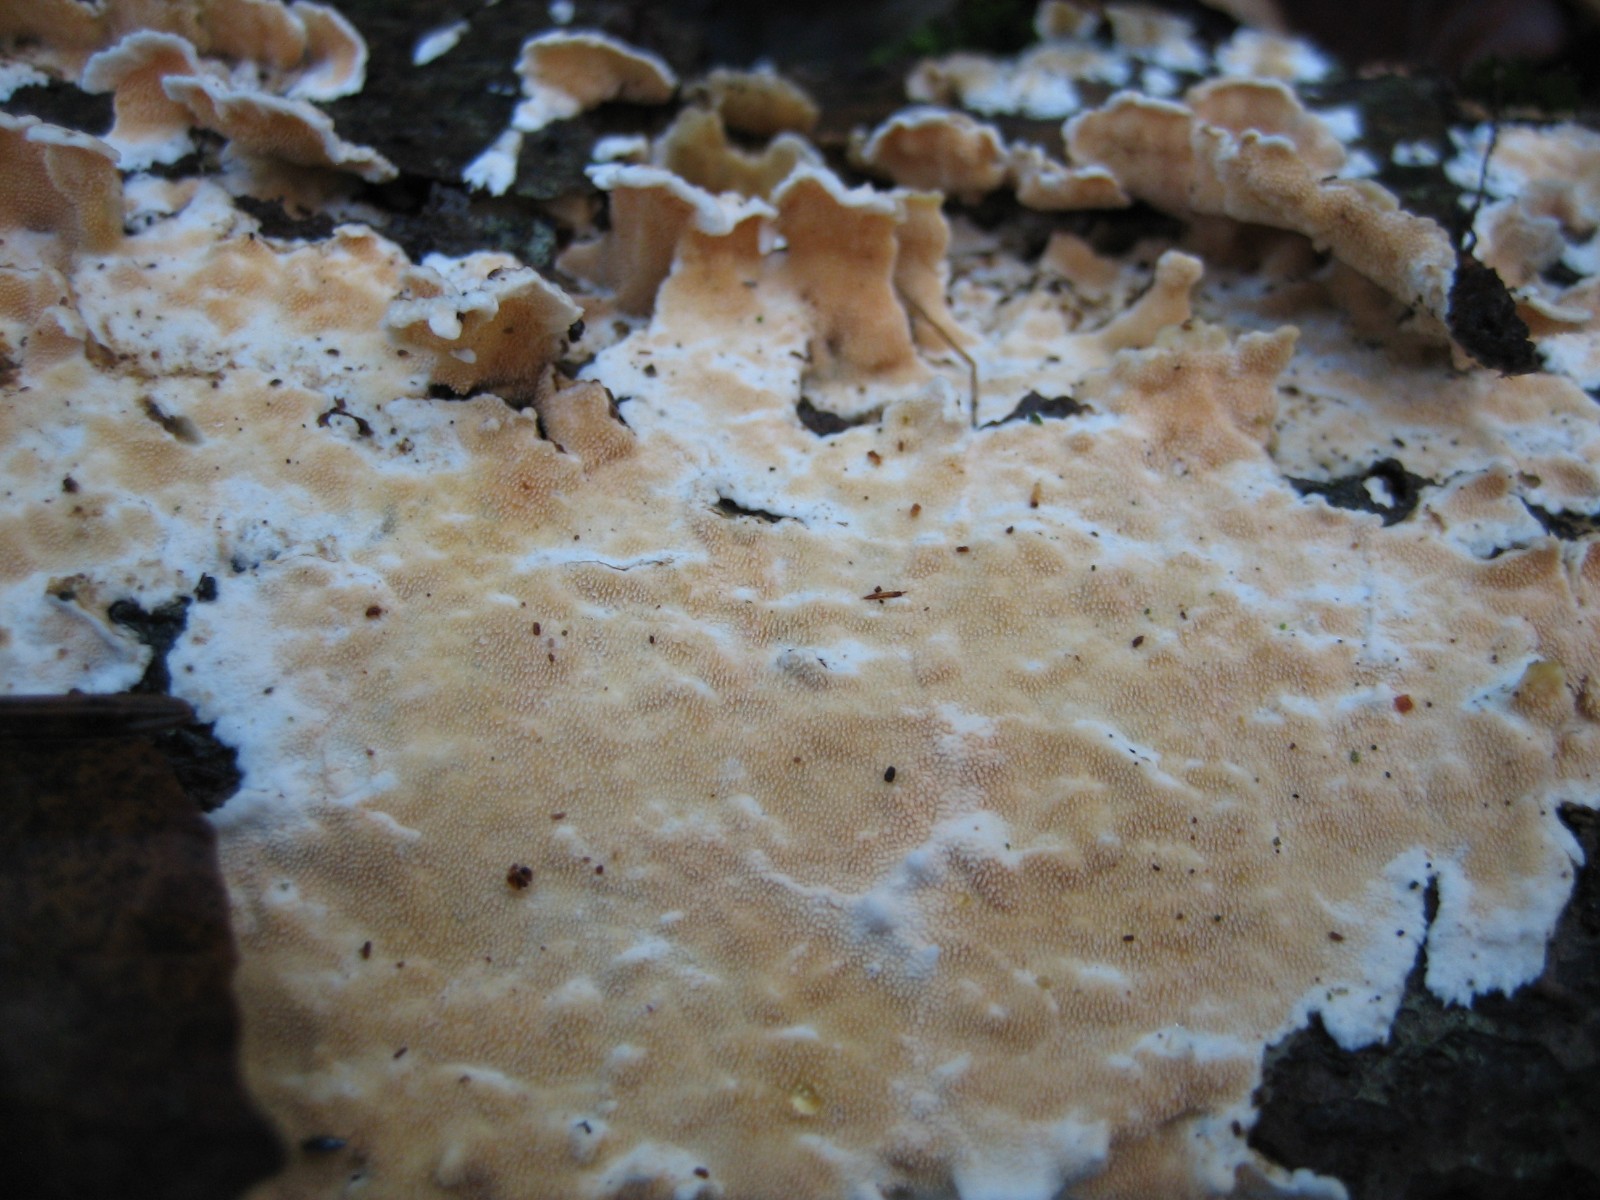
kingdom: Fungi
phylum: Basidiomycota
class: Agaricomycetes
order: Polyporales
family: Steccherinaceae
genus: Steccherinum
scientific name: Steccherinum ochraceum
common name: almindelig skønpig
